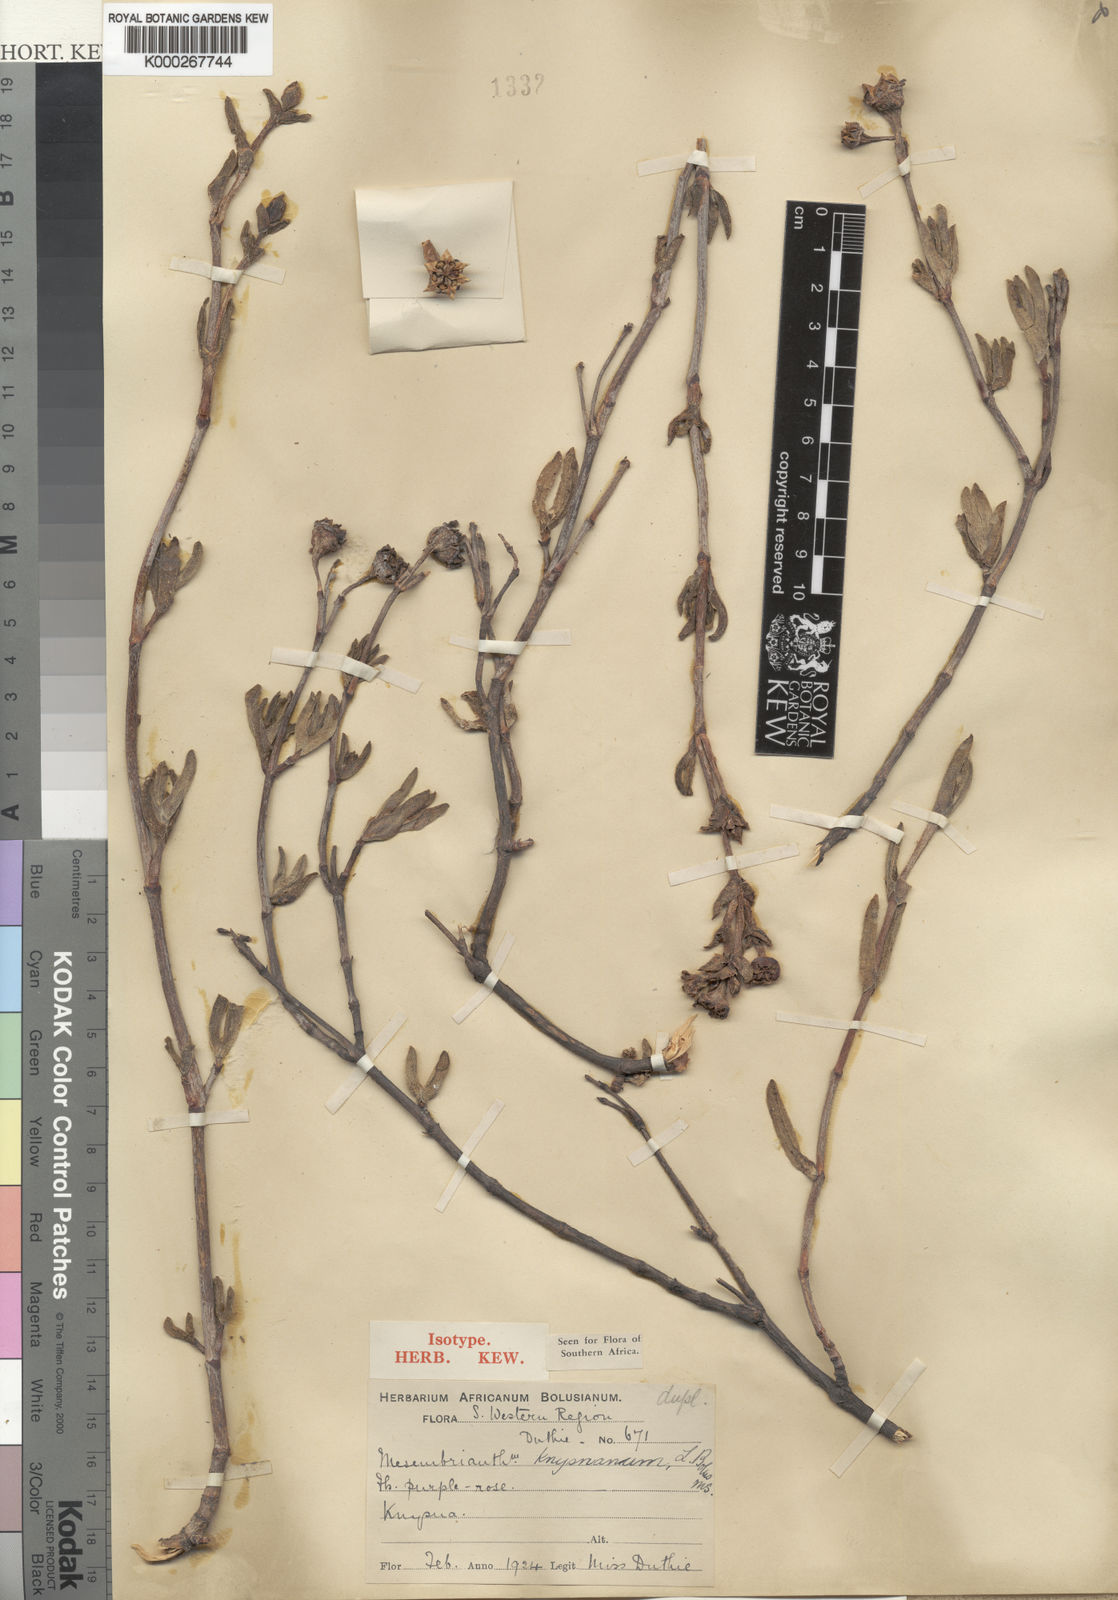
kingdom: Plantae
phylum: Tracheophyta
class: Magnoliopsida
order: Caryophyllales
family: Aizoaceae
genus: Esterhuysenia
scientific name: Esterhuysenia knysnana
